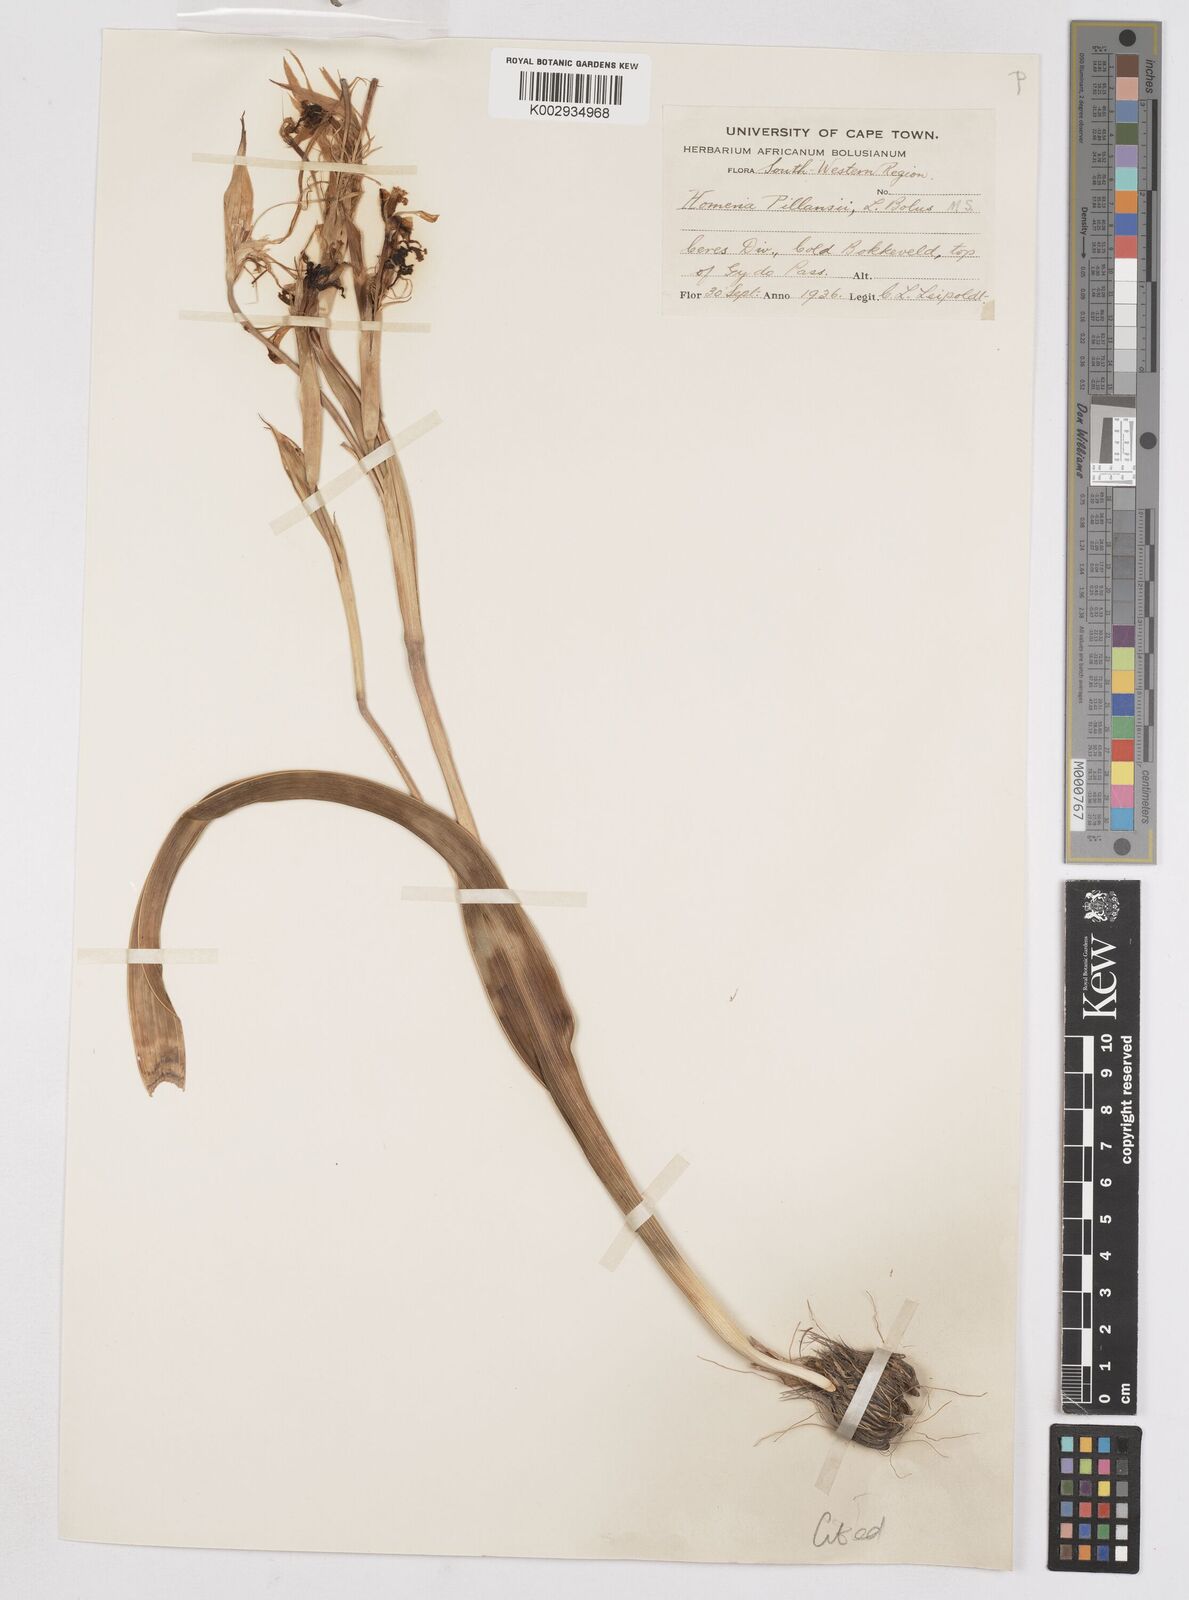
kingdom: Plantae
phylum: Tracheophyta
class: Liliopsida
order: Asparagales
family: Iridaceae
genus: Moraea
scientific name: Moraea cookii
